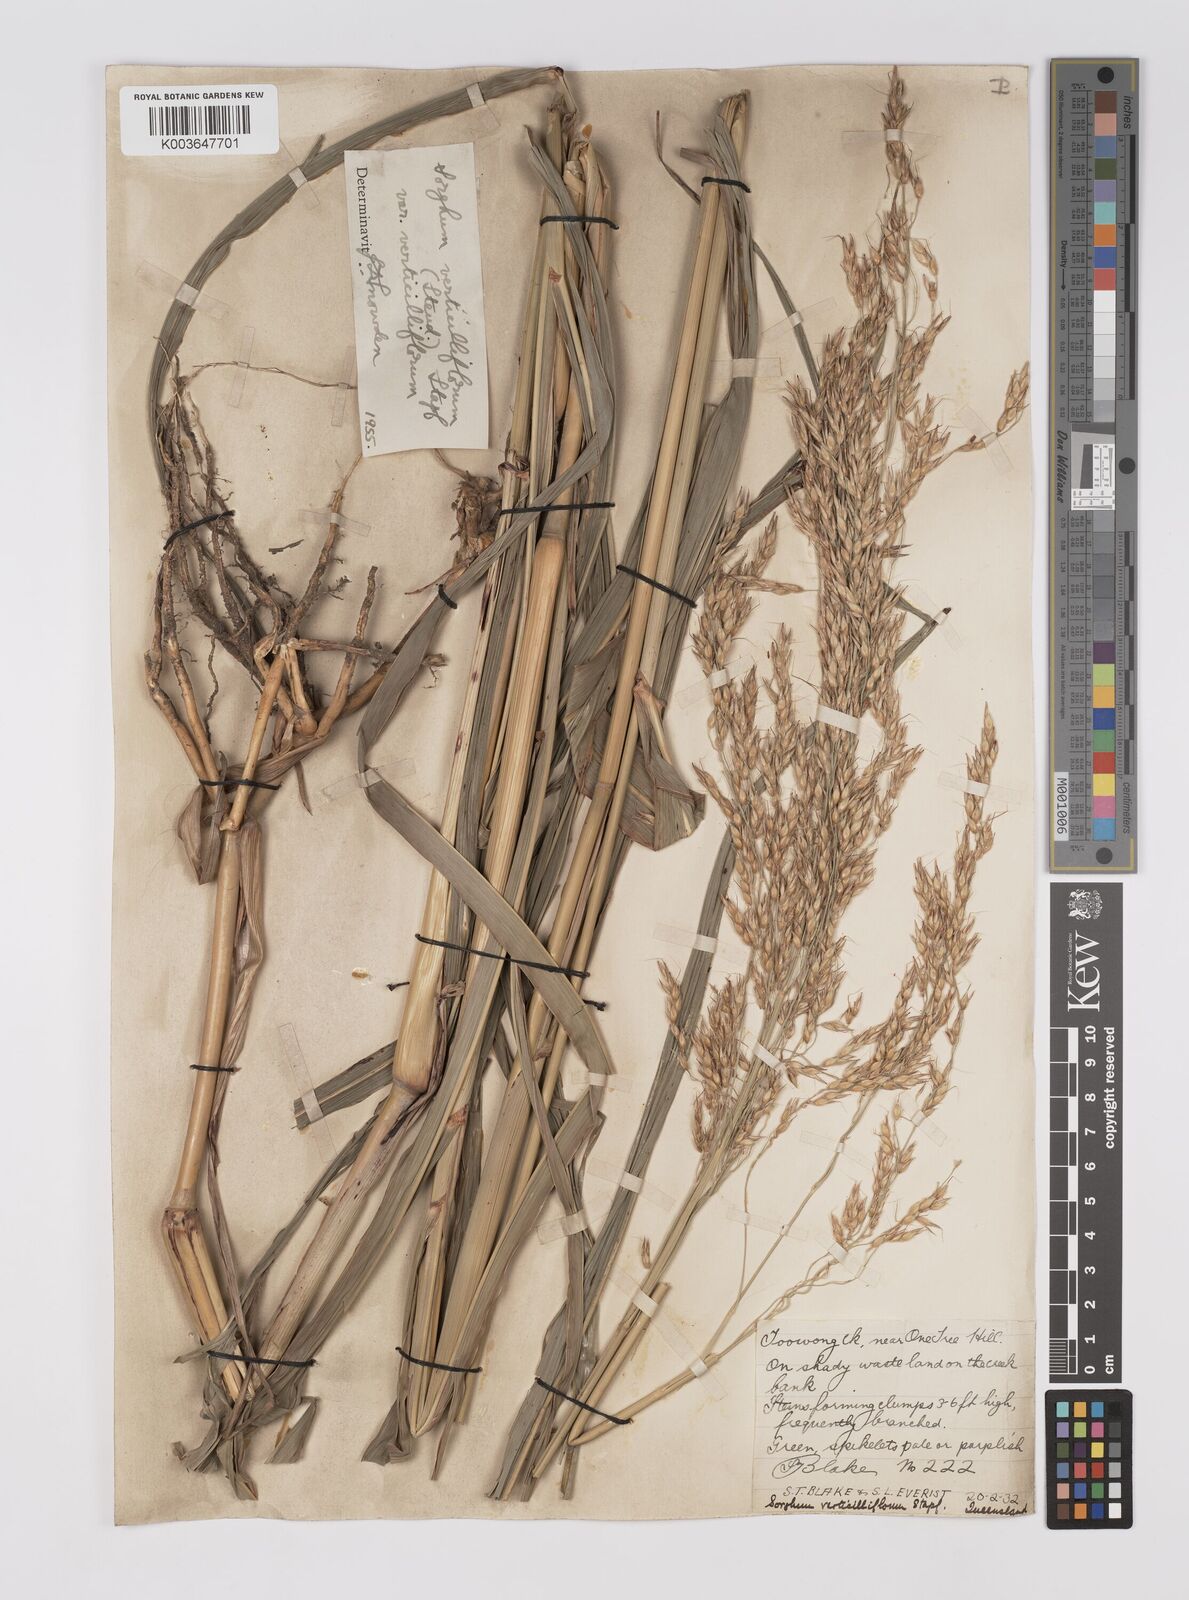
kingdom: Plantae
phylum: Tracheophyta
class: Liliopsida
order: Poales
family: Poaceae
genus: Sorghum
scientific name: Sorghum arundinaceum
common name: Sorghum
